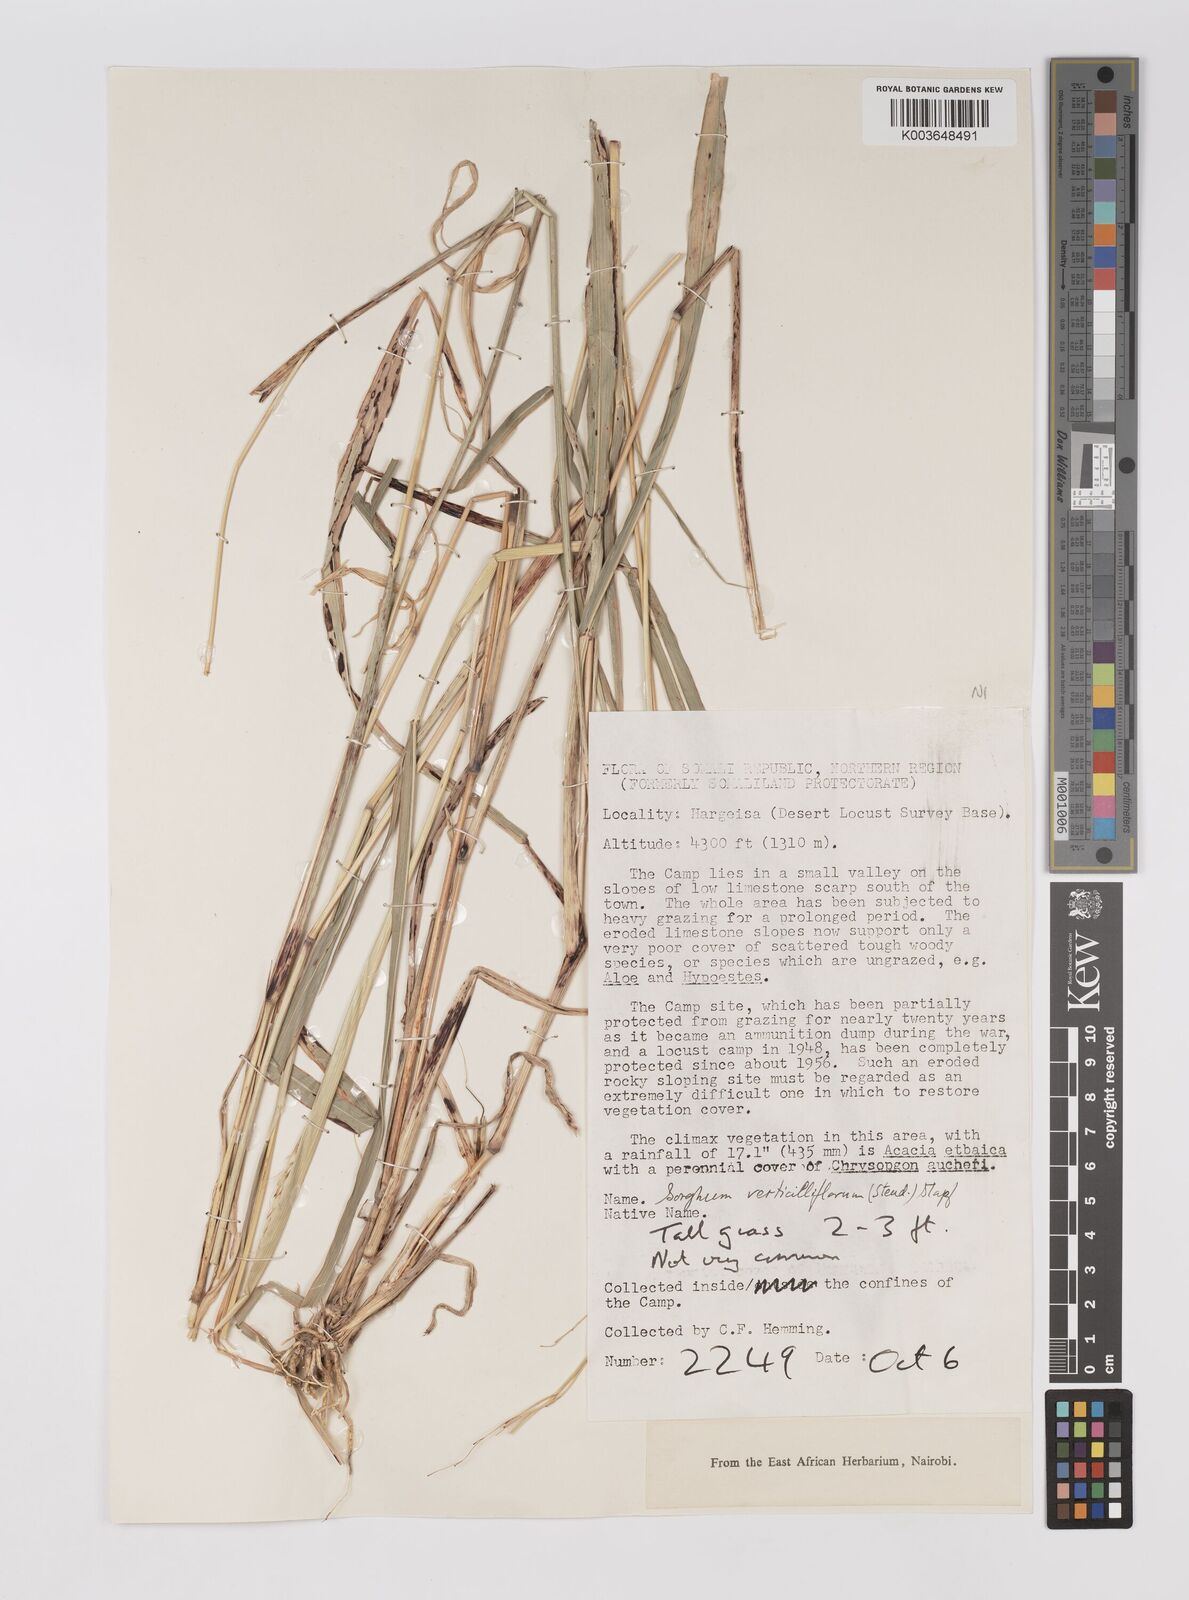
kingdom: Plantae
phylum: Tracheophyta
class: Liliopsida
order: Poales
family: Poaceae
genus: Sorghum
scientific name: Sorghum arundinaceum
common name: Sorghum
